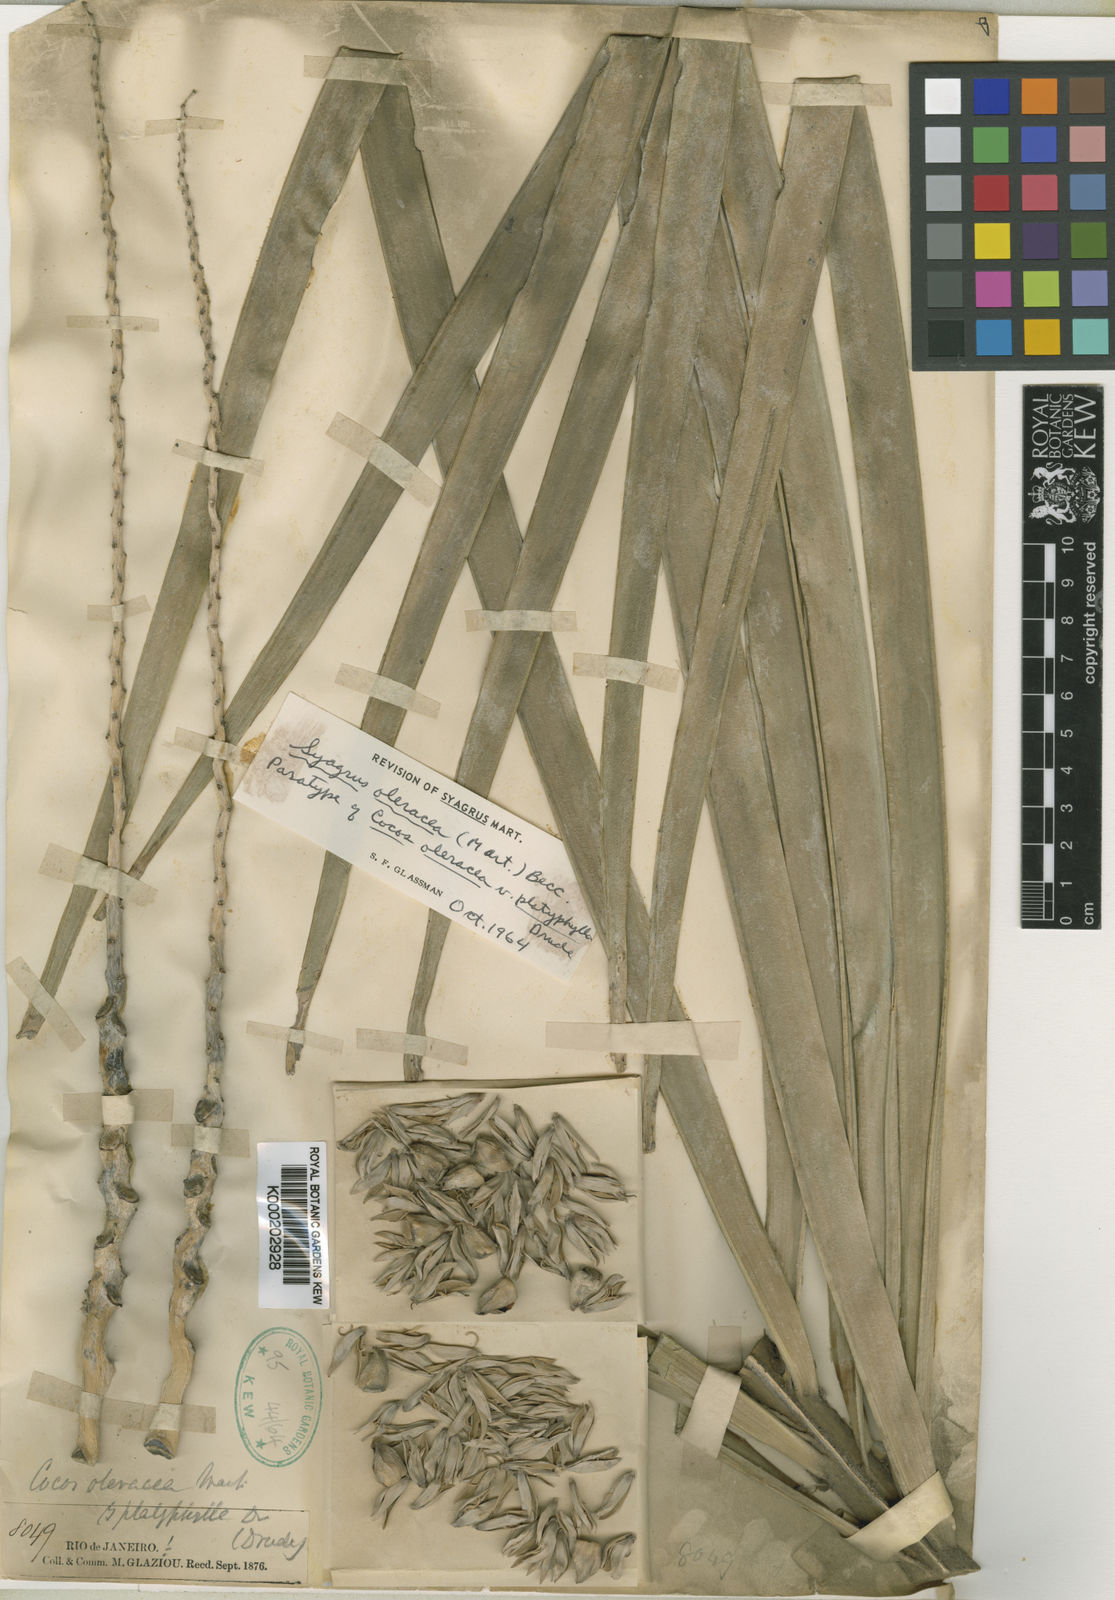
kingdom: Plantae
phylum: Tracheophyta
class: Liliopsida
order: Arecales
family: Arecaceae
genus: Syagrus
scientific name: Syagrus oleracea
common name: Catole palm
